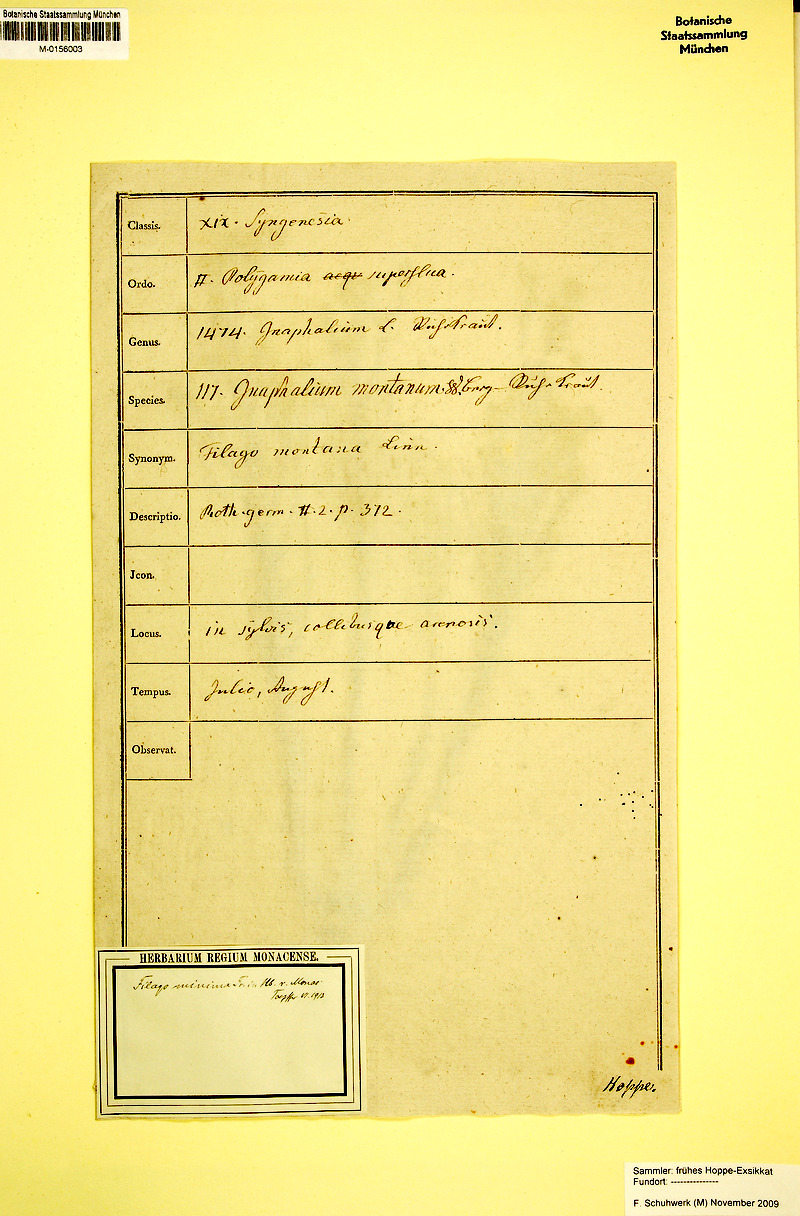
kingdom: Plantae
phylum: Tracheophyta
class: Magnoliopsida
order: Asterales
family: Asteraceae
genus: Filago
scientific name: Filago arvensis
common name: Field cudweed
